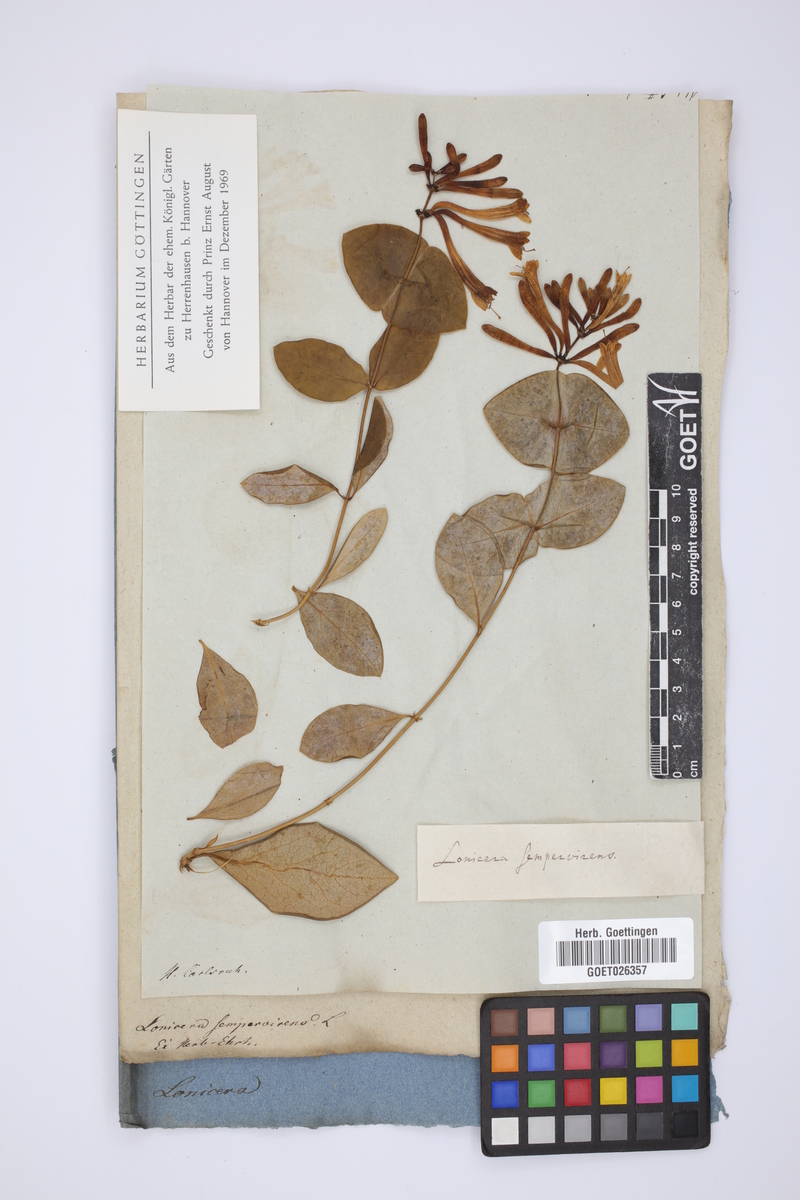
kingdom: Plantae
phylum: Tracheophyta
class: Magnoliopsida
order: Dipsacales
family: Caprifoliaceae
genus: Lonicera
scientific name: Lonicera sempervirens
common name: Coral honeysuckle
